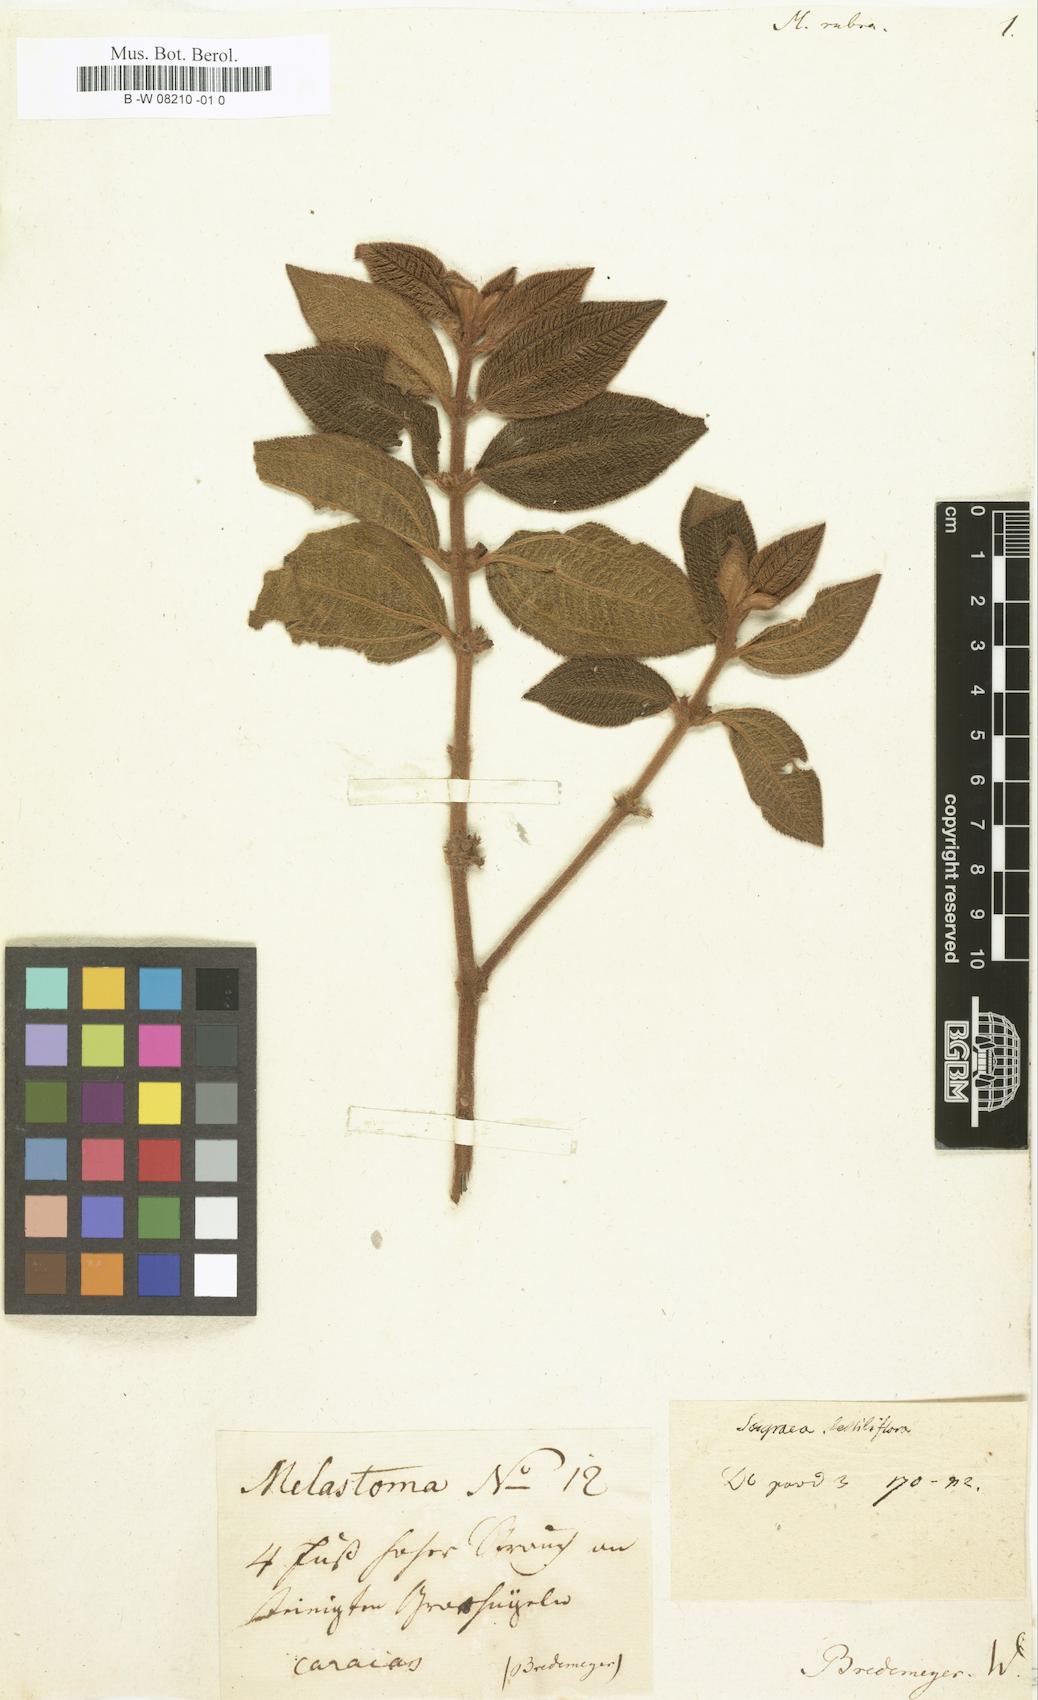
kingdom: Plantae
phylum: Tracheophyta
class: Magnoliopsida
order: Myrtales
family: Melastomataceae
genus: Miconia
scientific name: Miconia rubra
